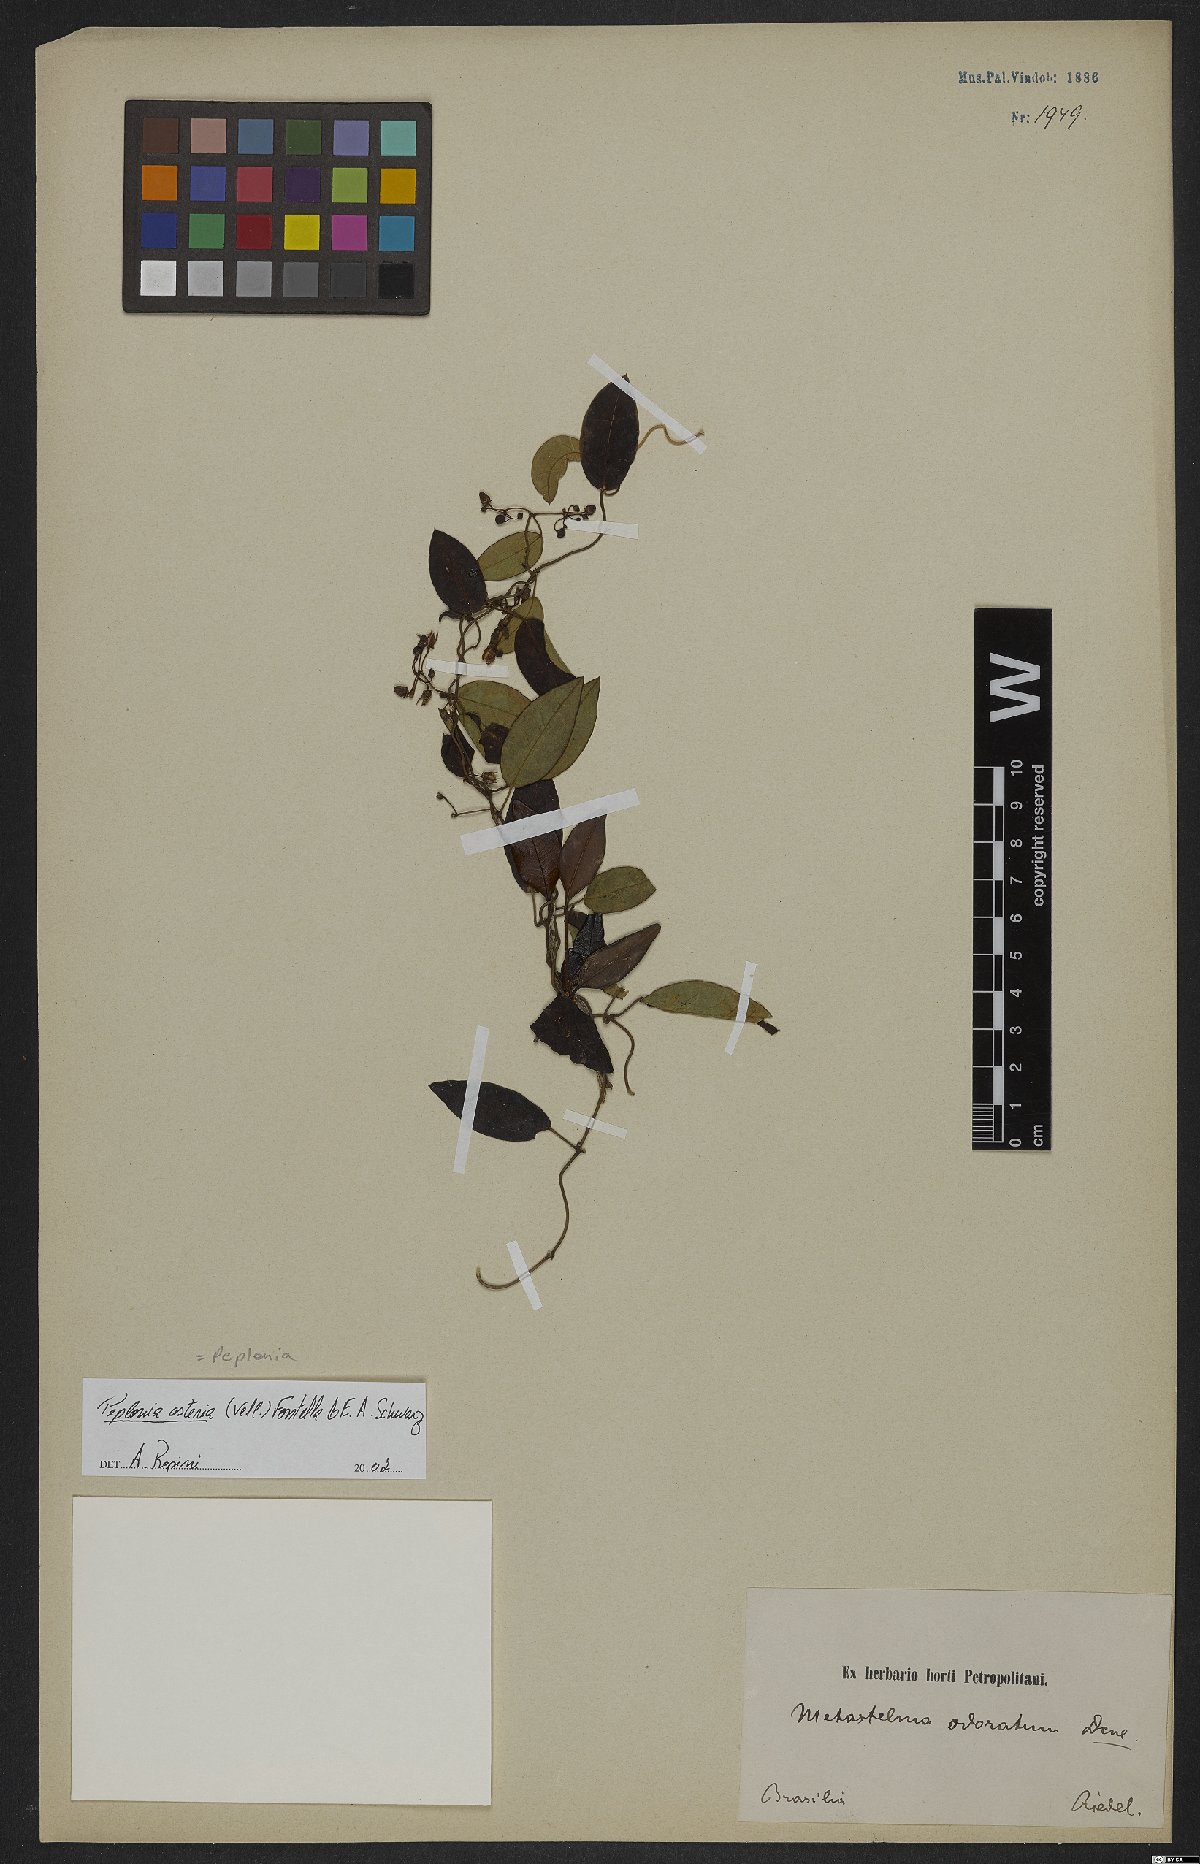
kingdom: Plantae
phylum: Tracheophyta
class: Magnoliopsida
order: Gentianales
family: Apocynaceae
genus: Peplonia
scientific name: Peplonia asteria
